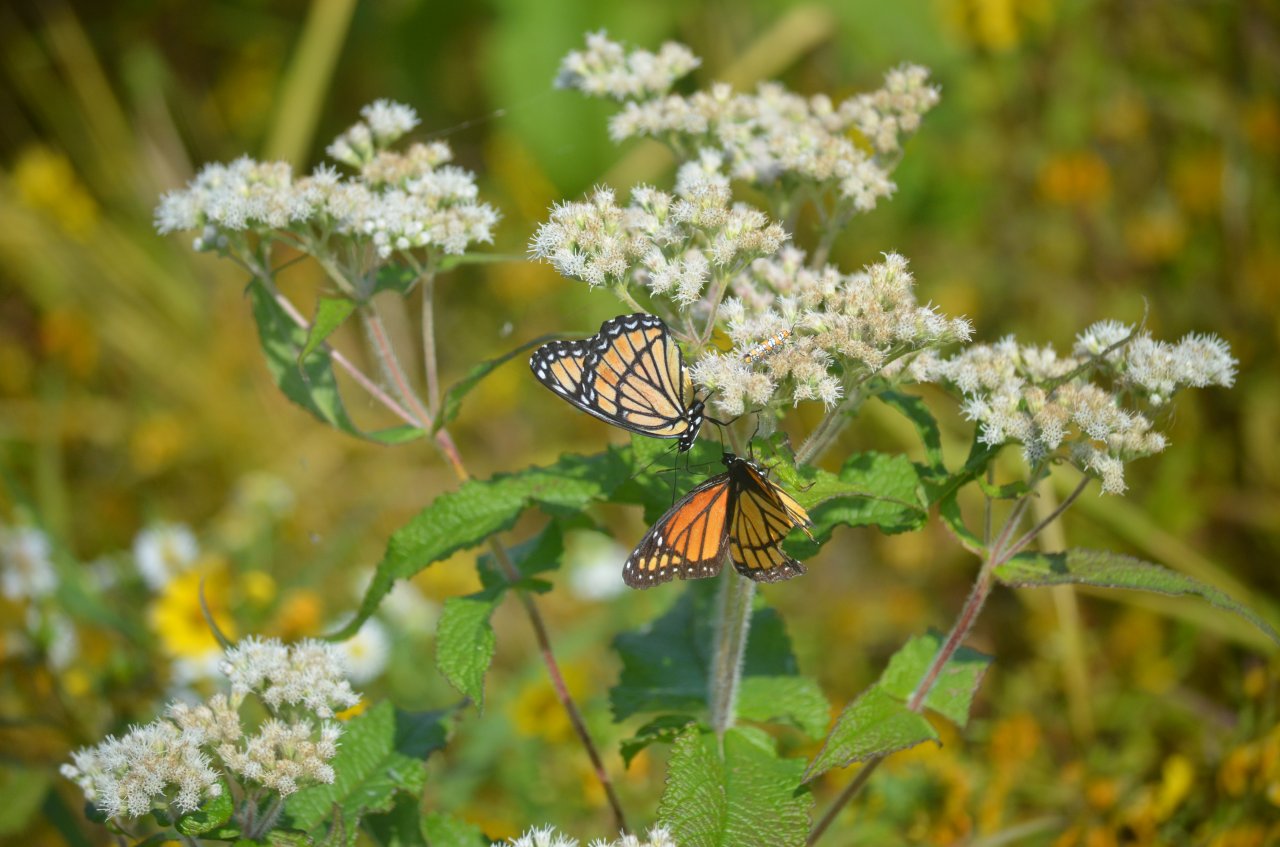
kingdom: Animalia
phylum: Arthropoda
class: Insecta
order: Lepidoptera
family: Nymphalidae
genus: Limenitis
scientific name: Limenitis archippus
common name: Viceroy
